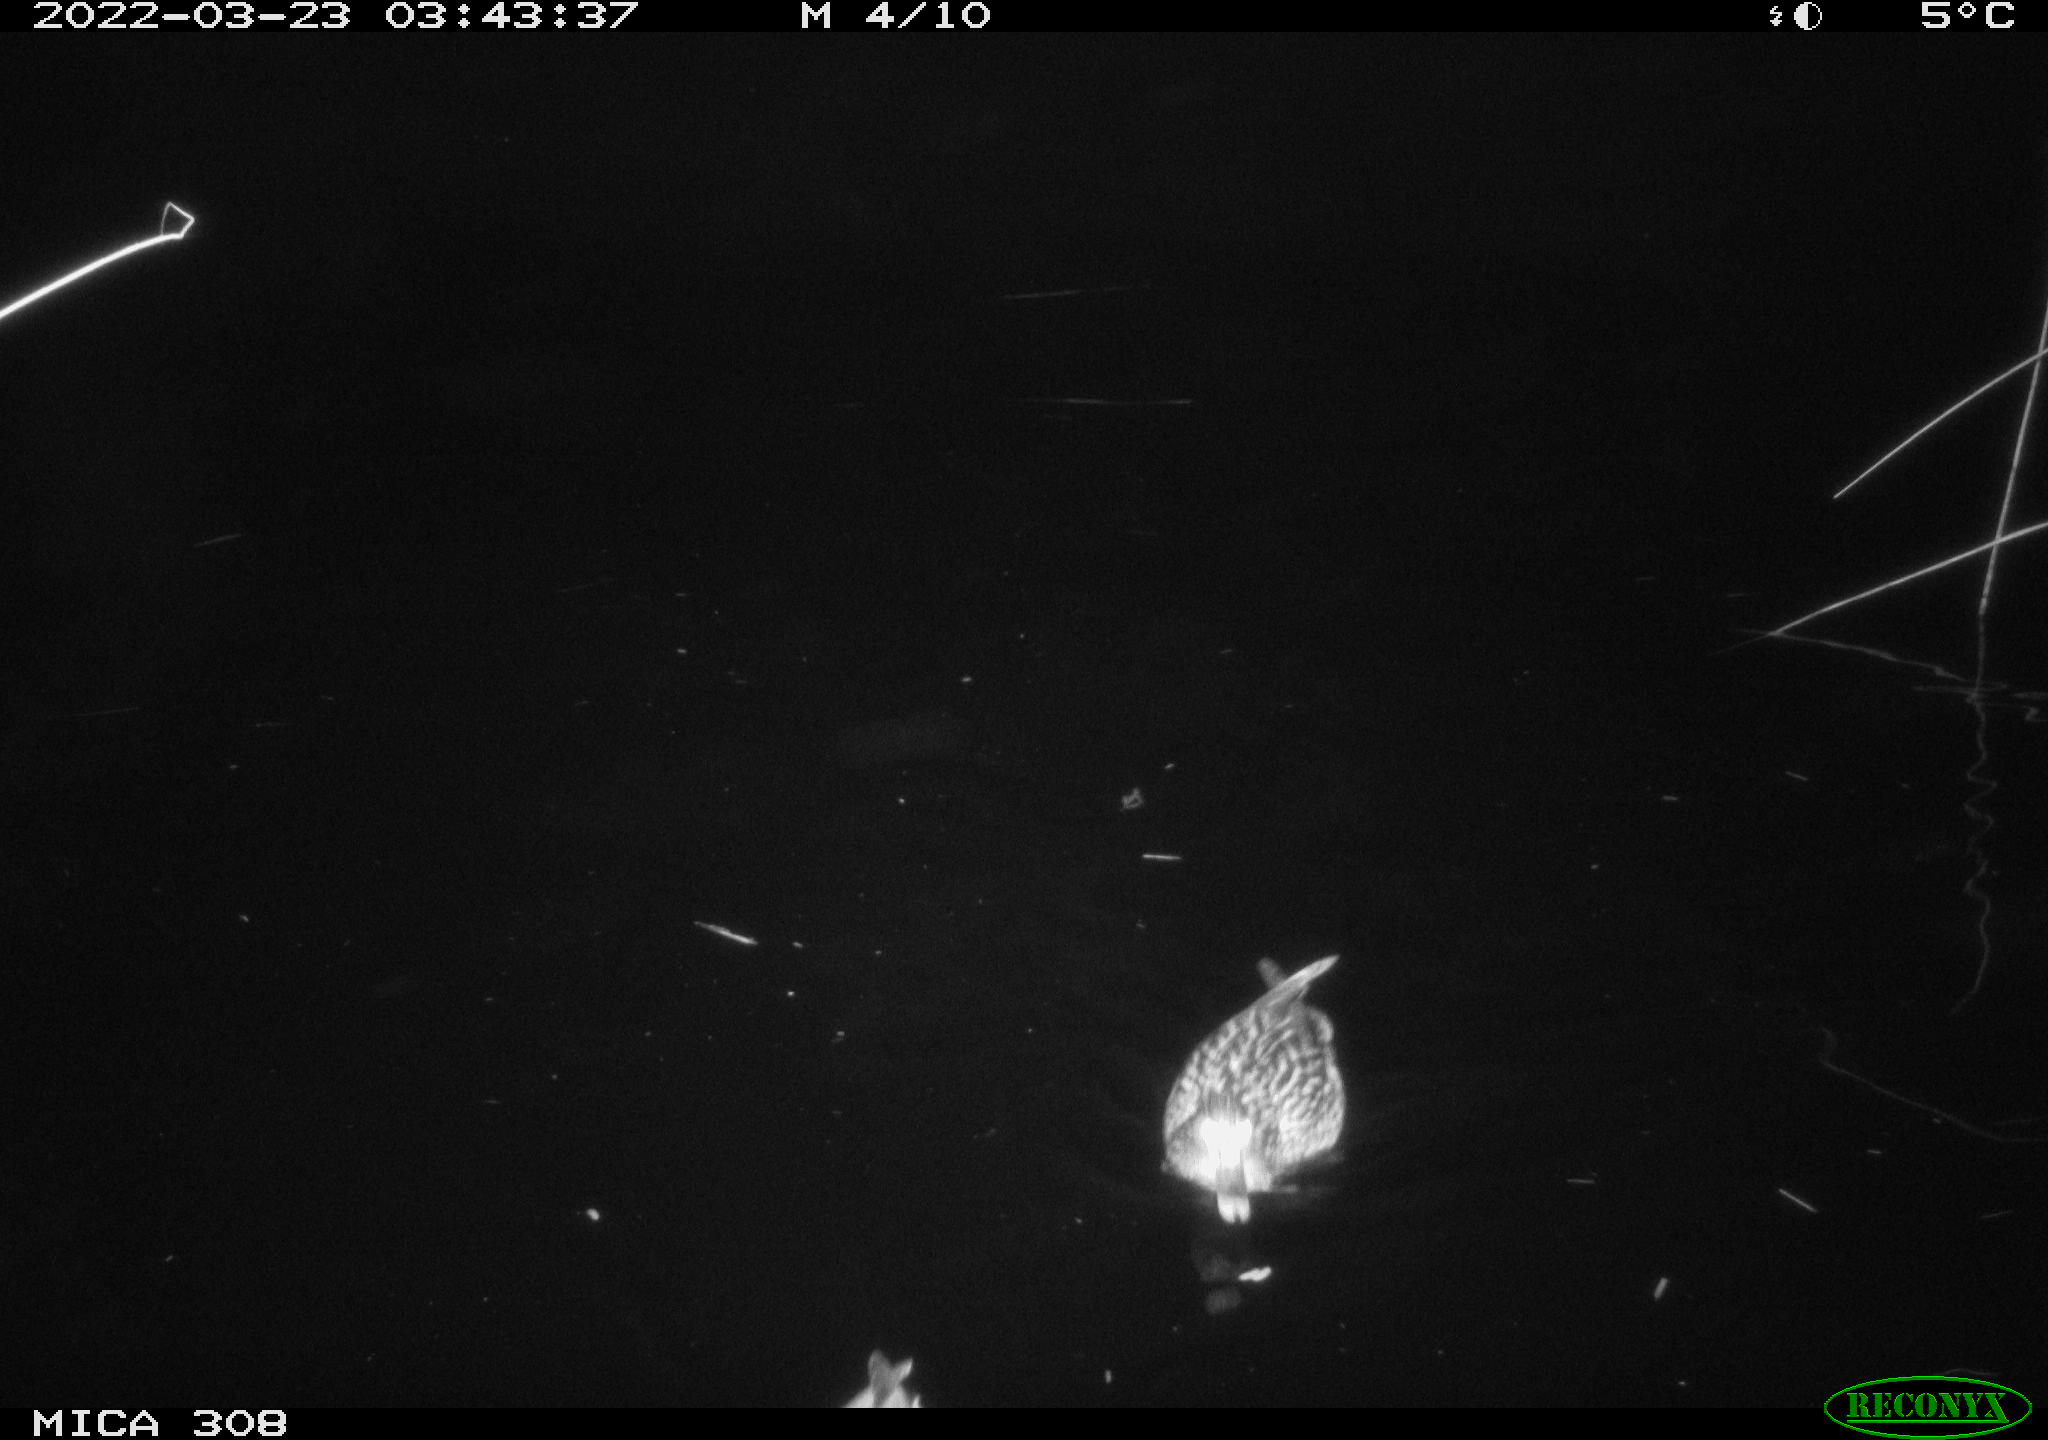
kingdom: Animalia
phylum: Chordata
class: Aves
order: Anseriformes
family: Anatidae
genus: Anas
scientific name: Anas platyrhynchos
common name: Mallard
